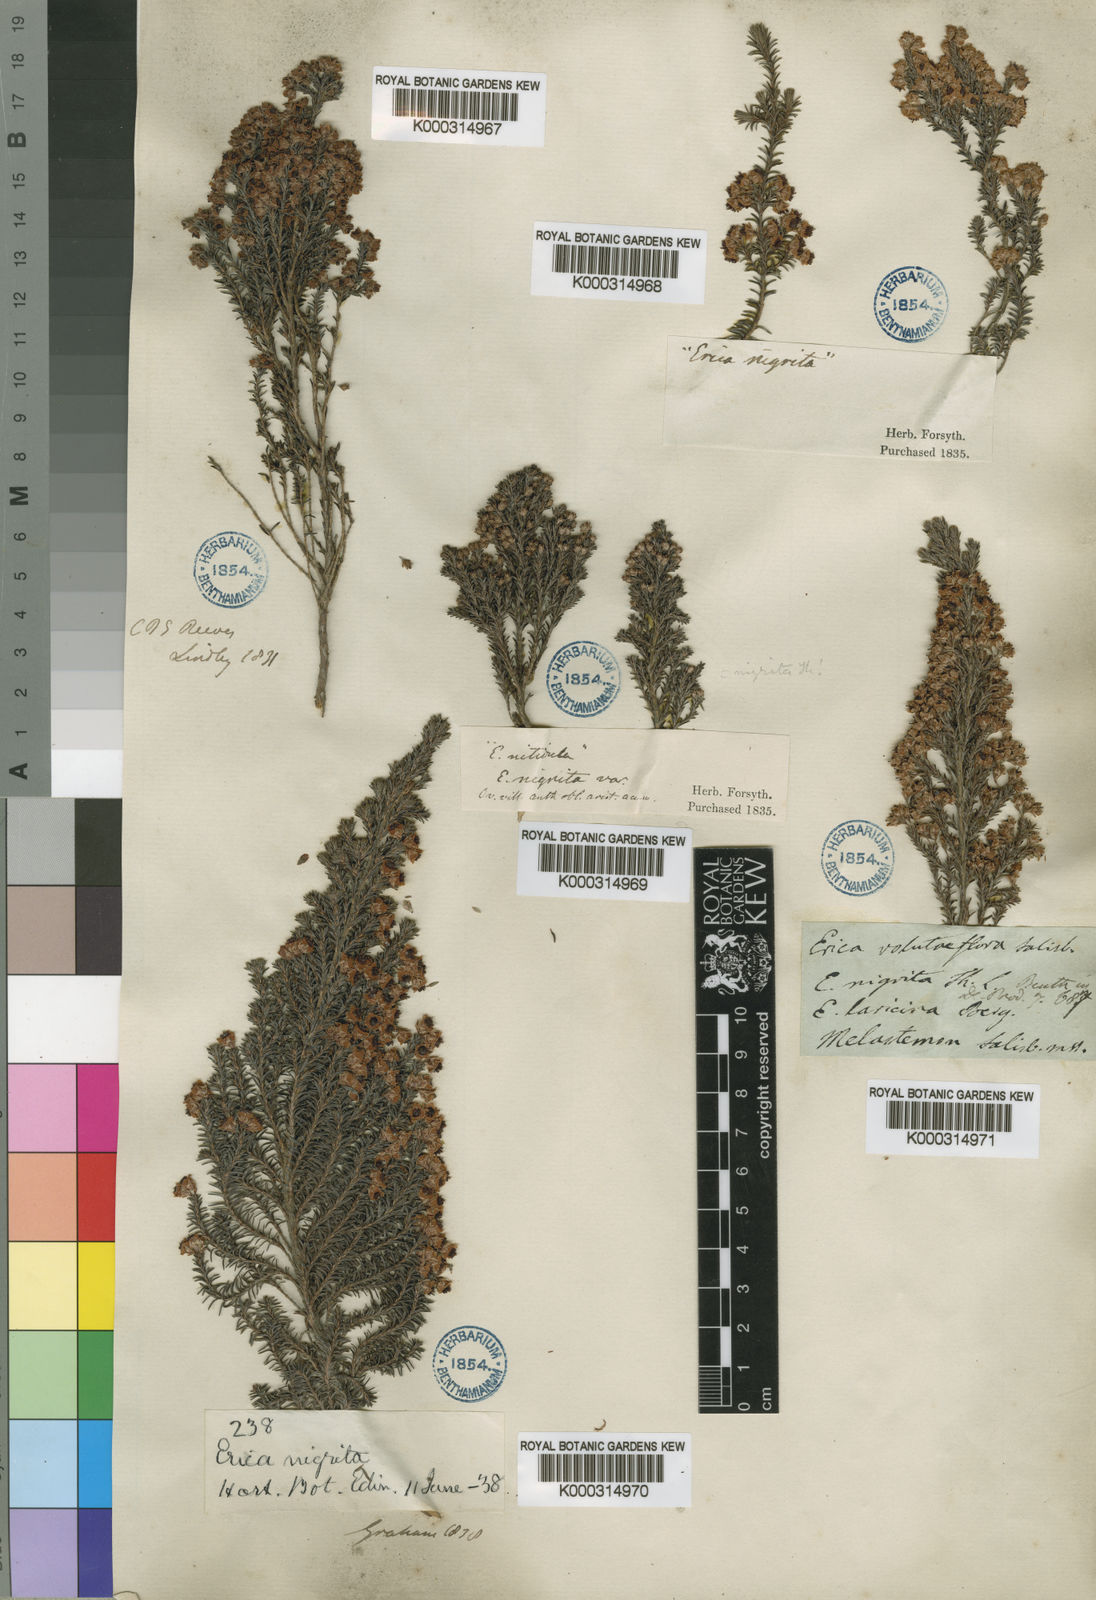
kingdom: Plantae
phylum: Tracheophyta
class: Magnoliopsida
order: Ericales
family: Ericaceae
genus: Erica
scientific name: Erica calycina
